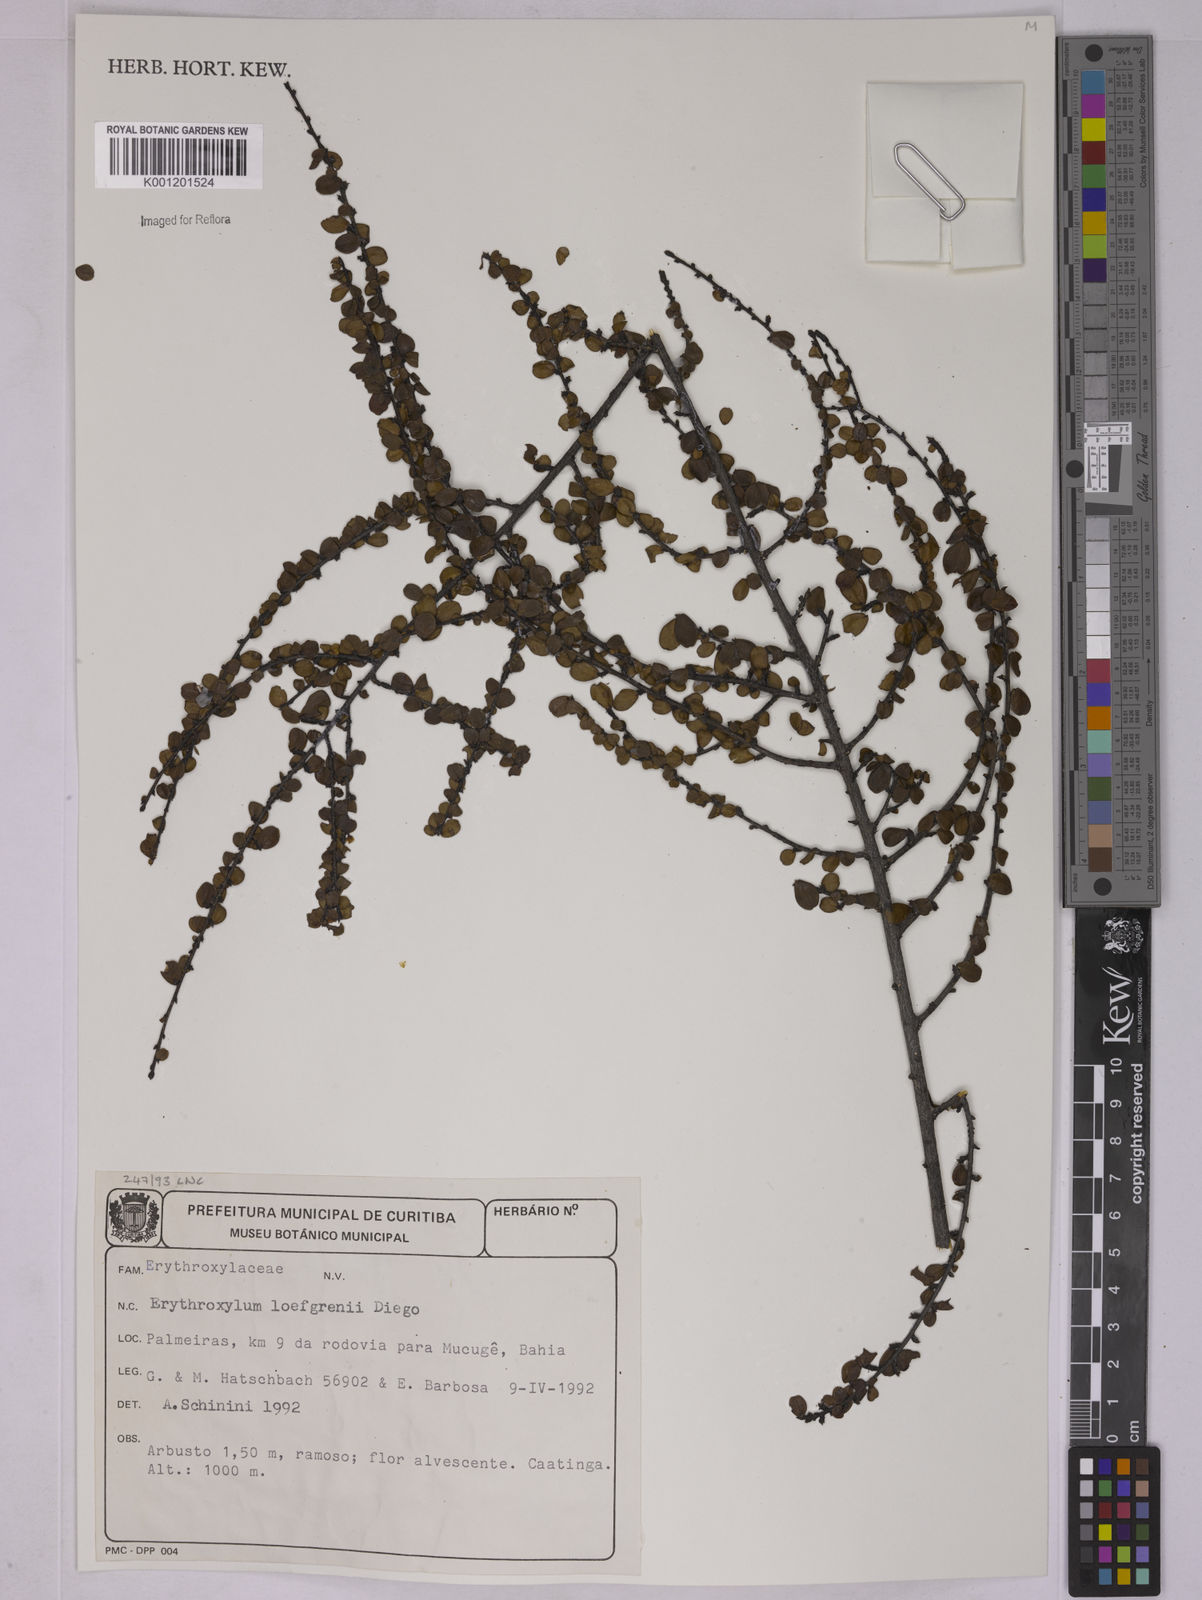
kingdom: Plantae
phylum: Tracheophyta
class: Magnoliopsida
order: Malpighiales
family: Erythroxylaceae
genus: Erythroxylum
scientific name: Erythroxylum loefgrenii
